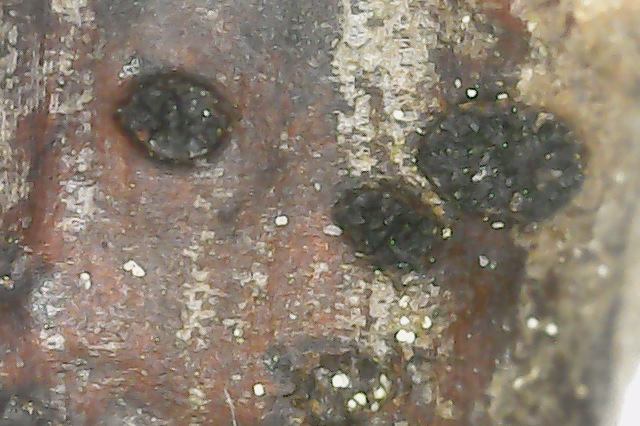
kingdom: Fungi
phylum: Ascomycota
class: Sordariomycetes
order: Diaporthales
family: Diaporthaceae
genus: Diaporthe
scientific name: Diaporthe strumella
